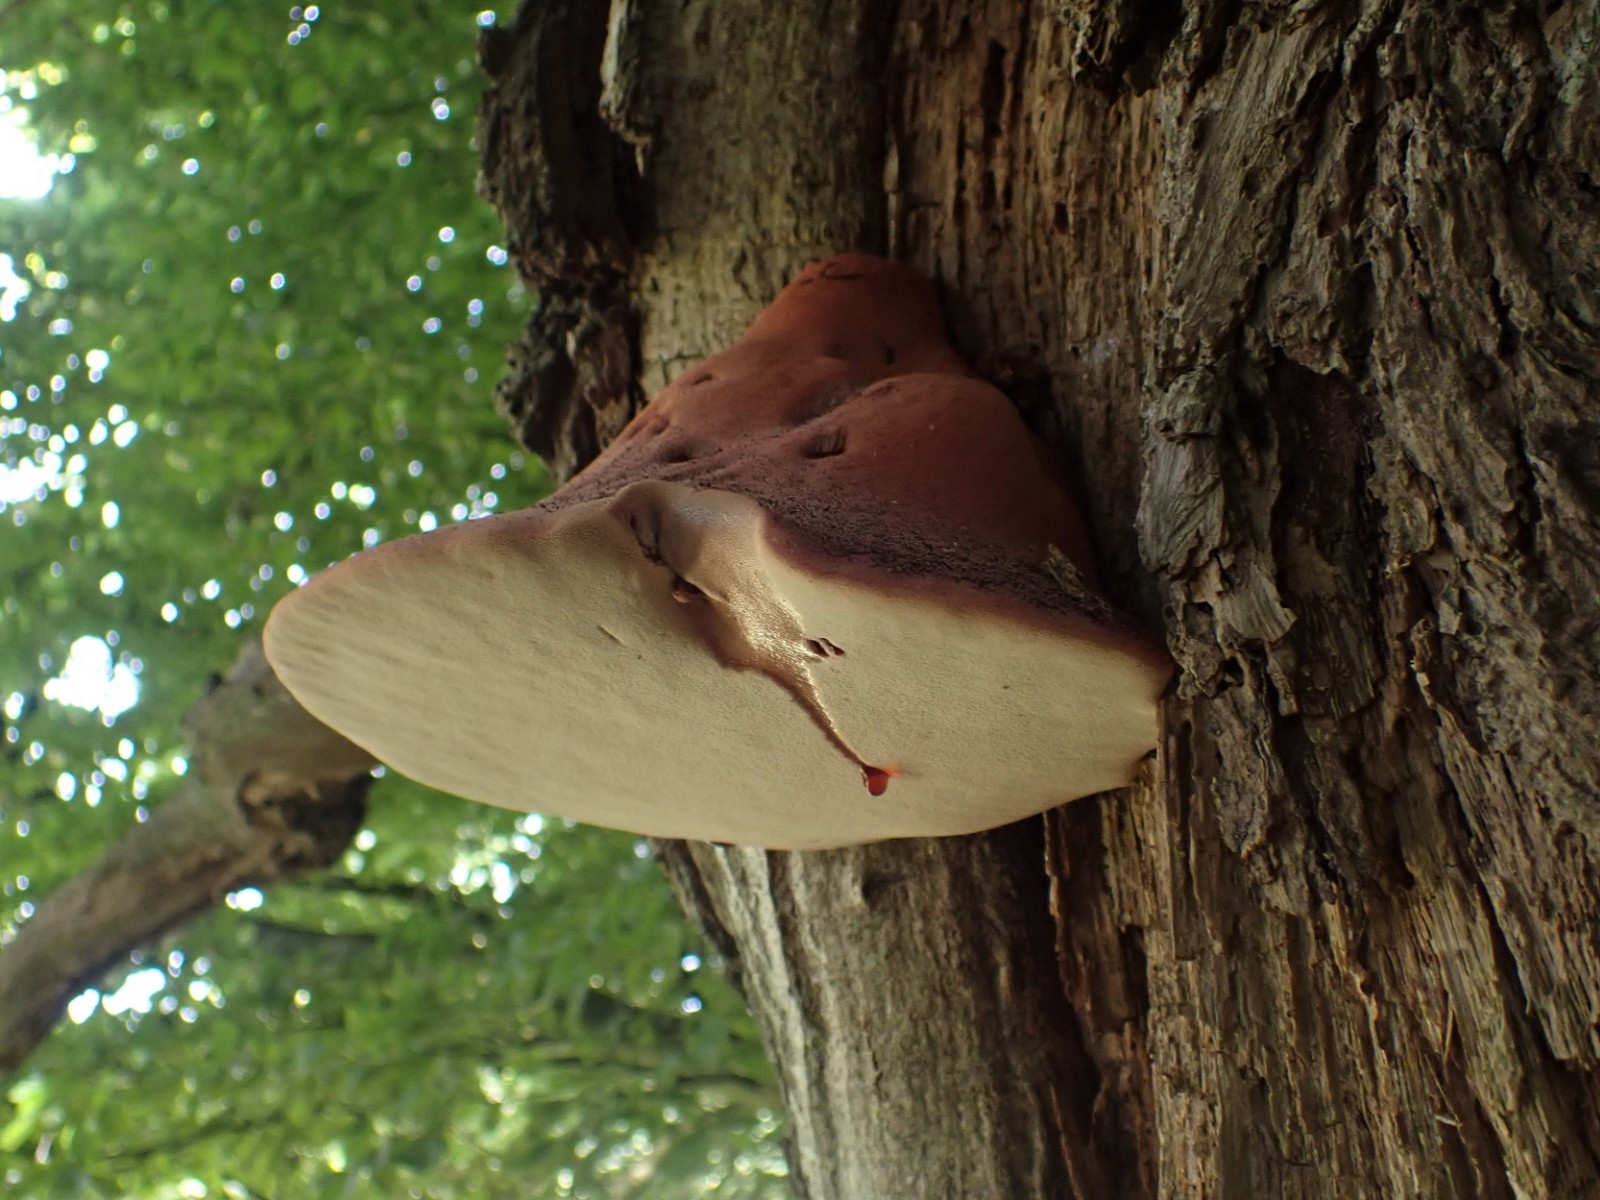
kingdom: Fungi
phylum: Basidiomycota
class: Agaricomycetes
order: Agaricales
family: Fistulinaceae
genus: Fistulina
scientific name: Fistulina hepatica
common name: oksetunge
